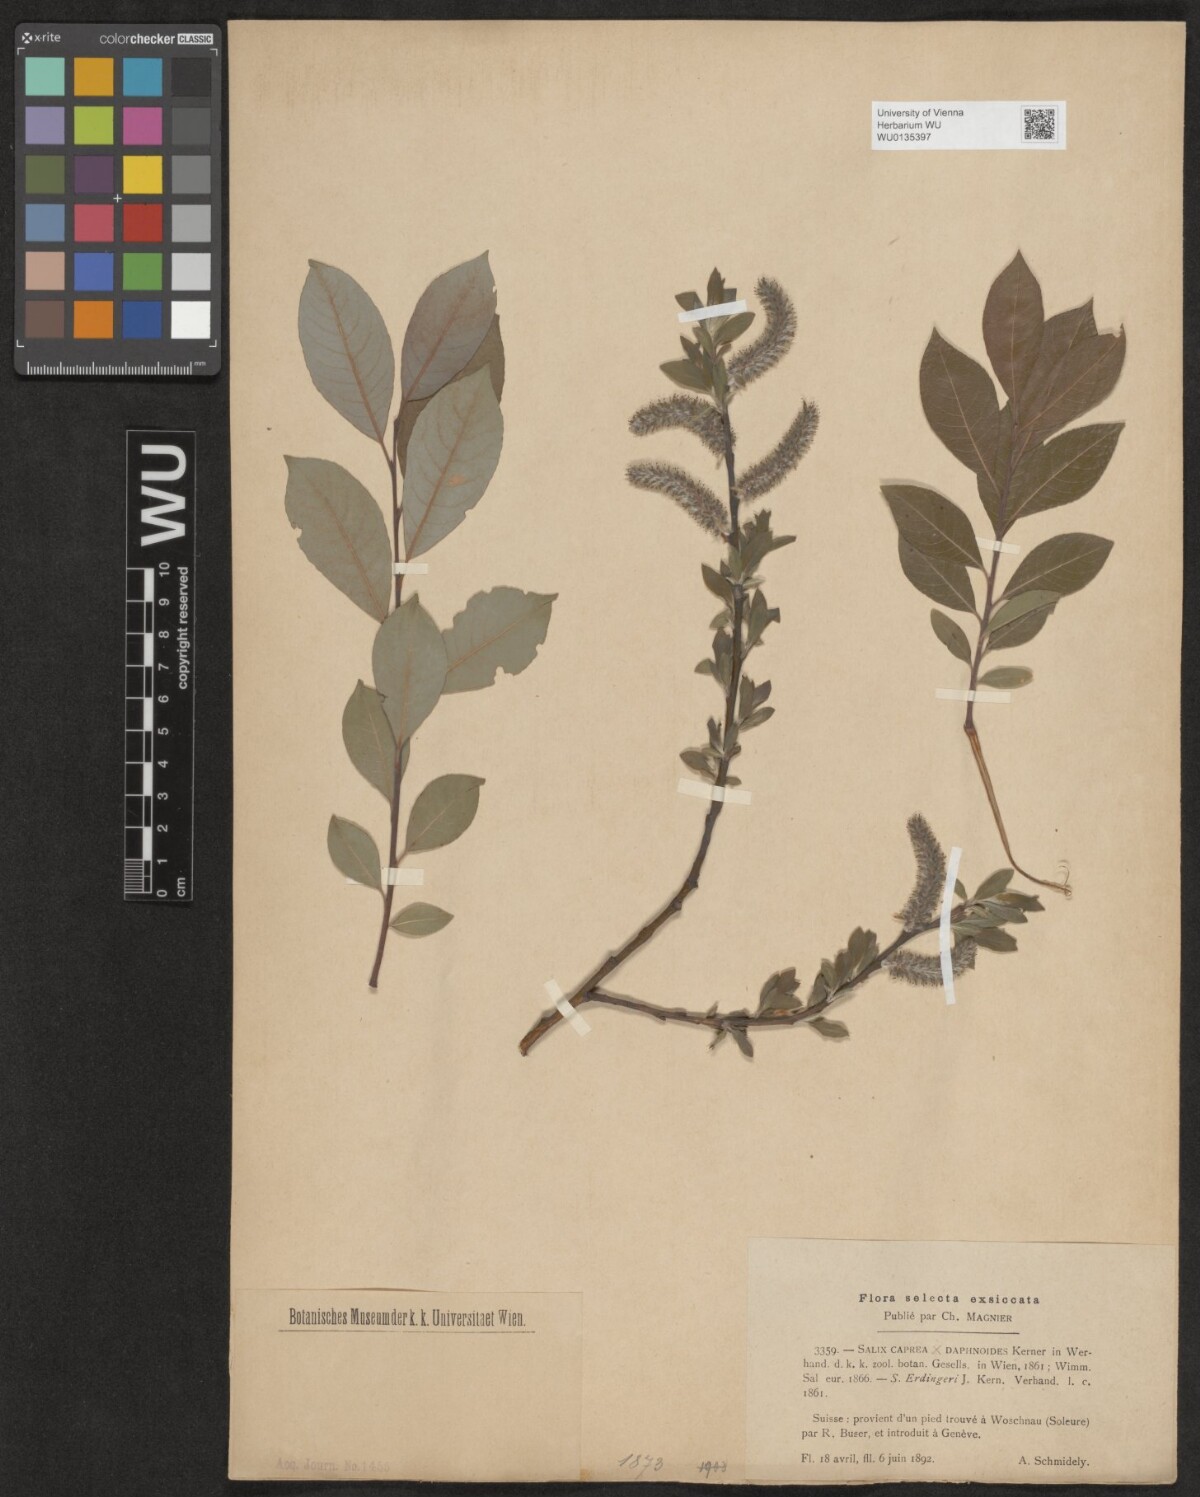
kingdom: Plantae
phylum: Tracheophyta
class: Magnoliopsida
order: Malpighiales
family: Salicaceae
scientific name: Salicaceae
